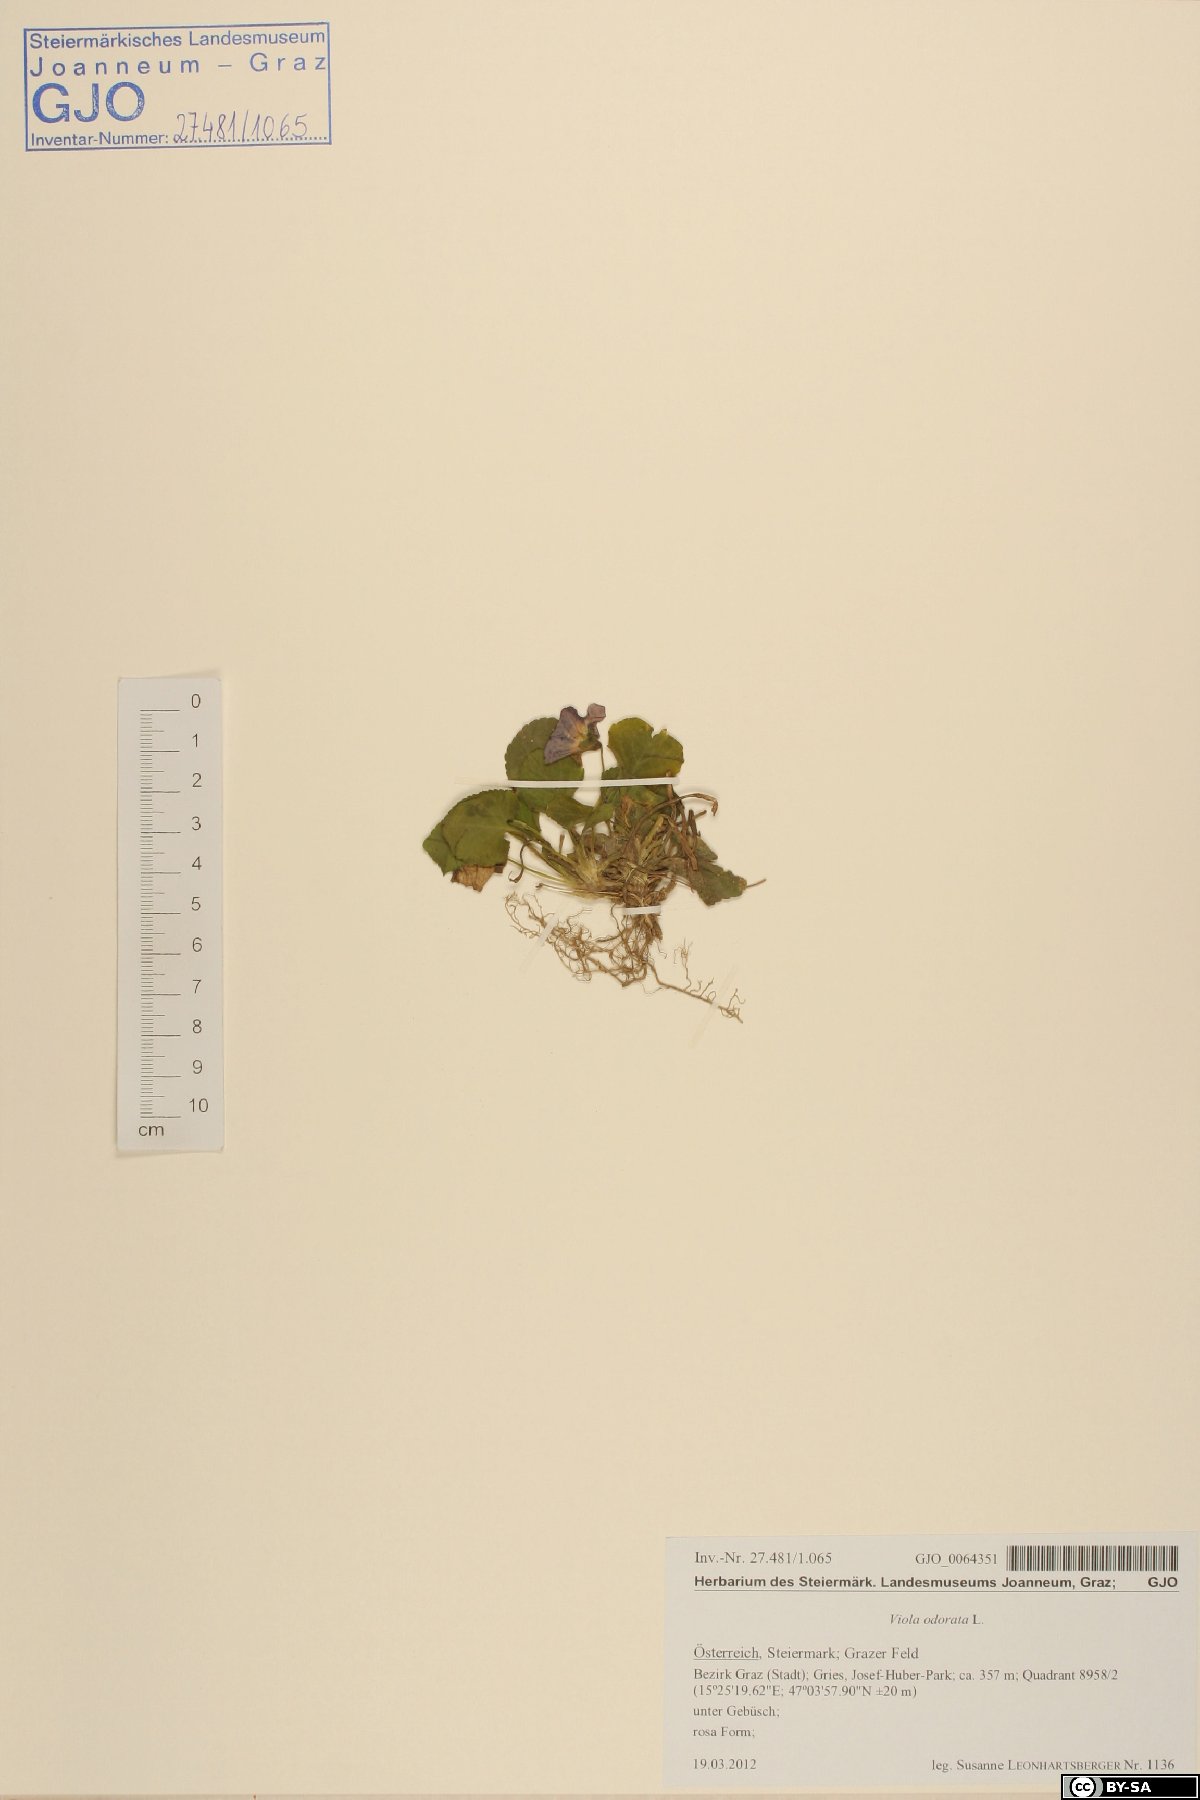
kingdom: Plantae
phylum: Tracheophyta
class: Magnoliopsida
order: Malpighiales
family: Violaceae
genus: Viola
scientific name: Viola odorata
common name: Sweet violet
